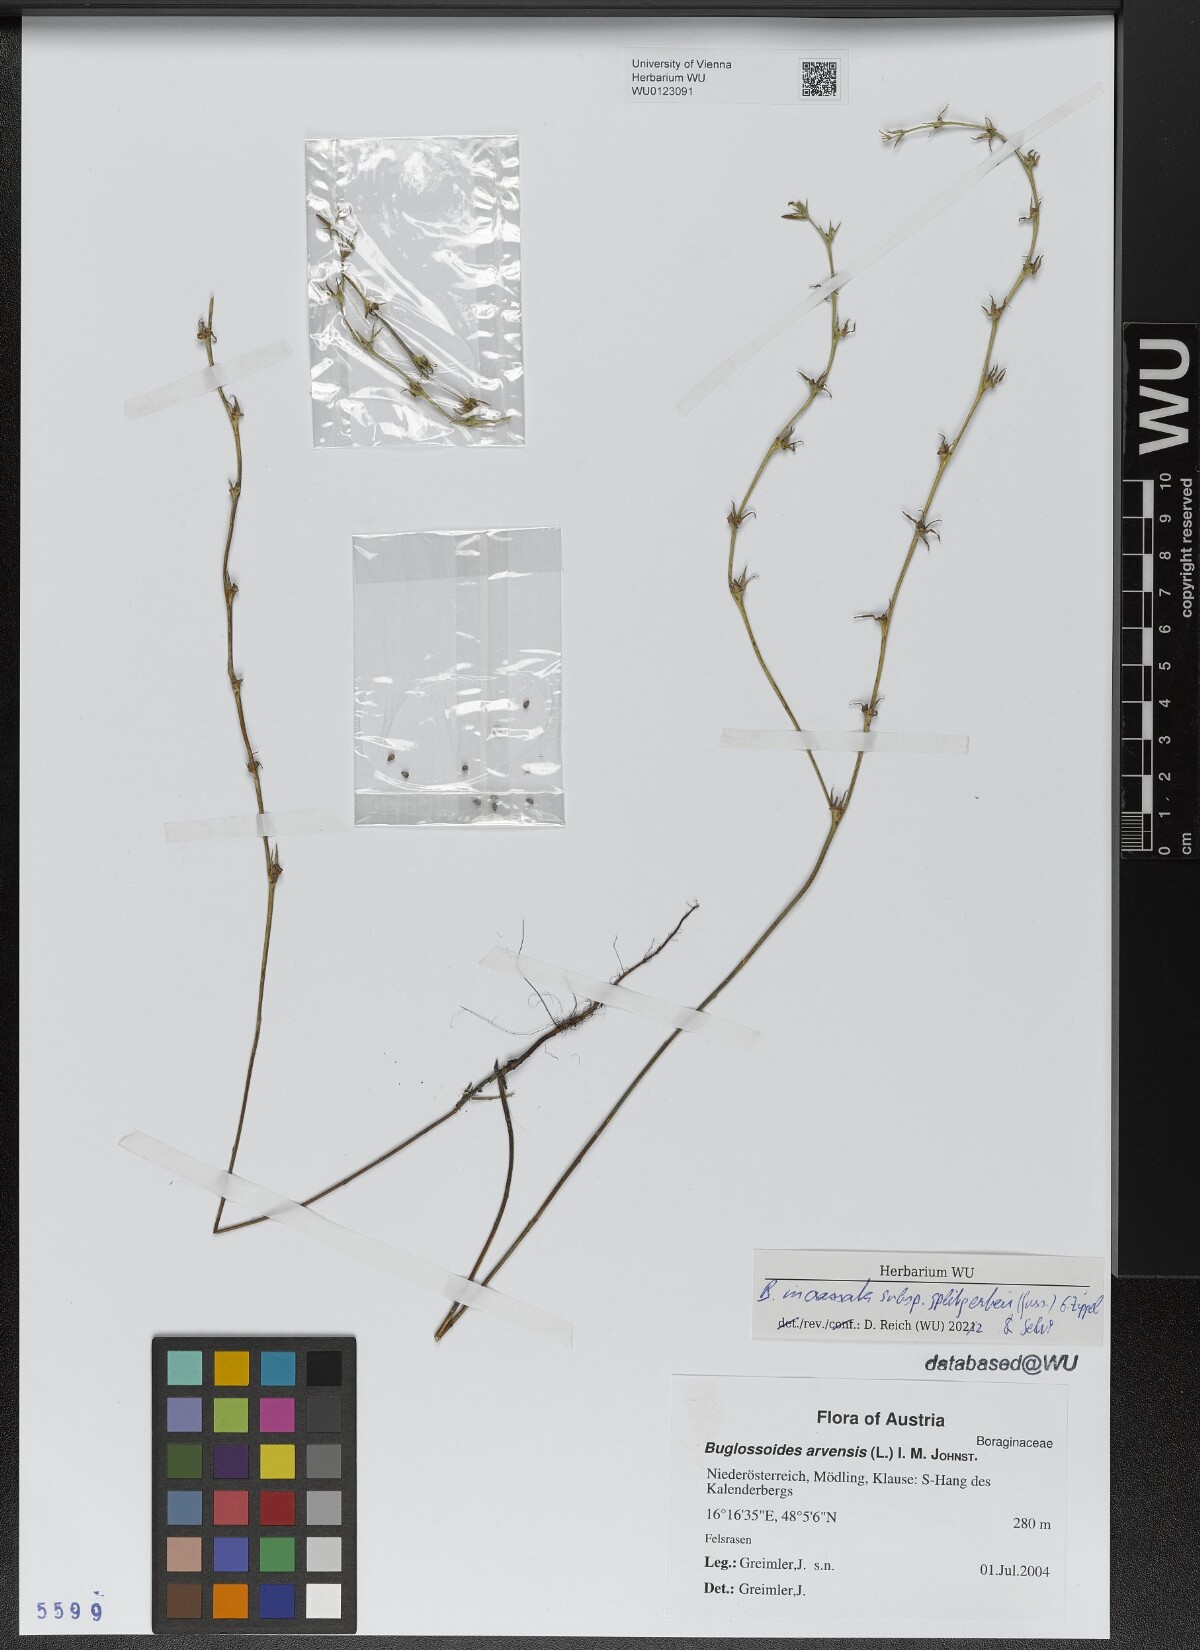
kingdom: Plantae
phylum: Tracheophyta
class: Magnoliopsida
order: Boraginales
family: Boraginaceae
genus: Buglossoides
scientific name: Buglossoides incrassata
